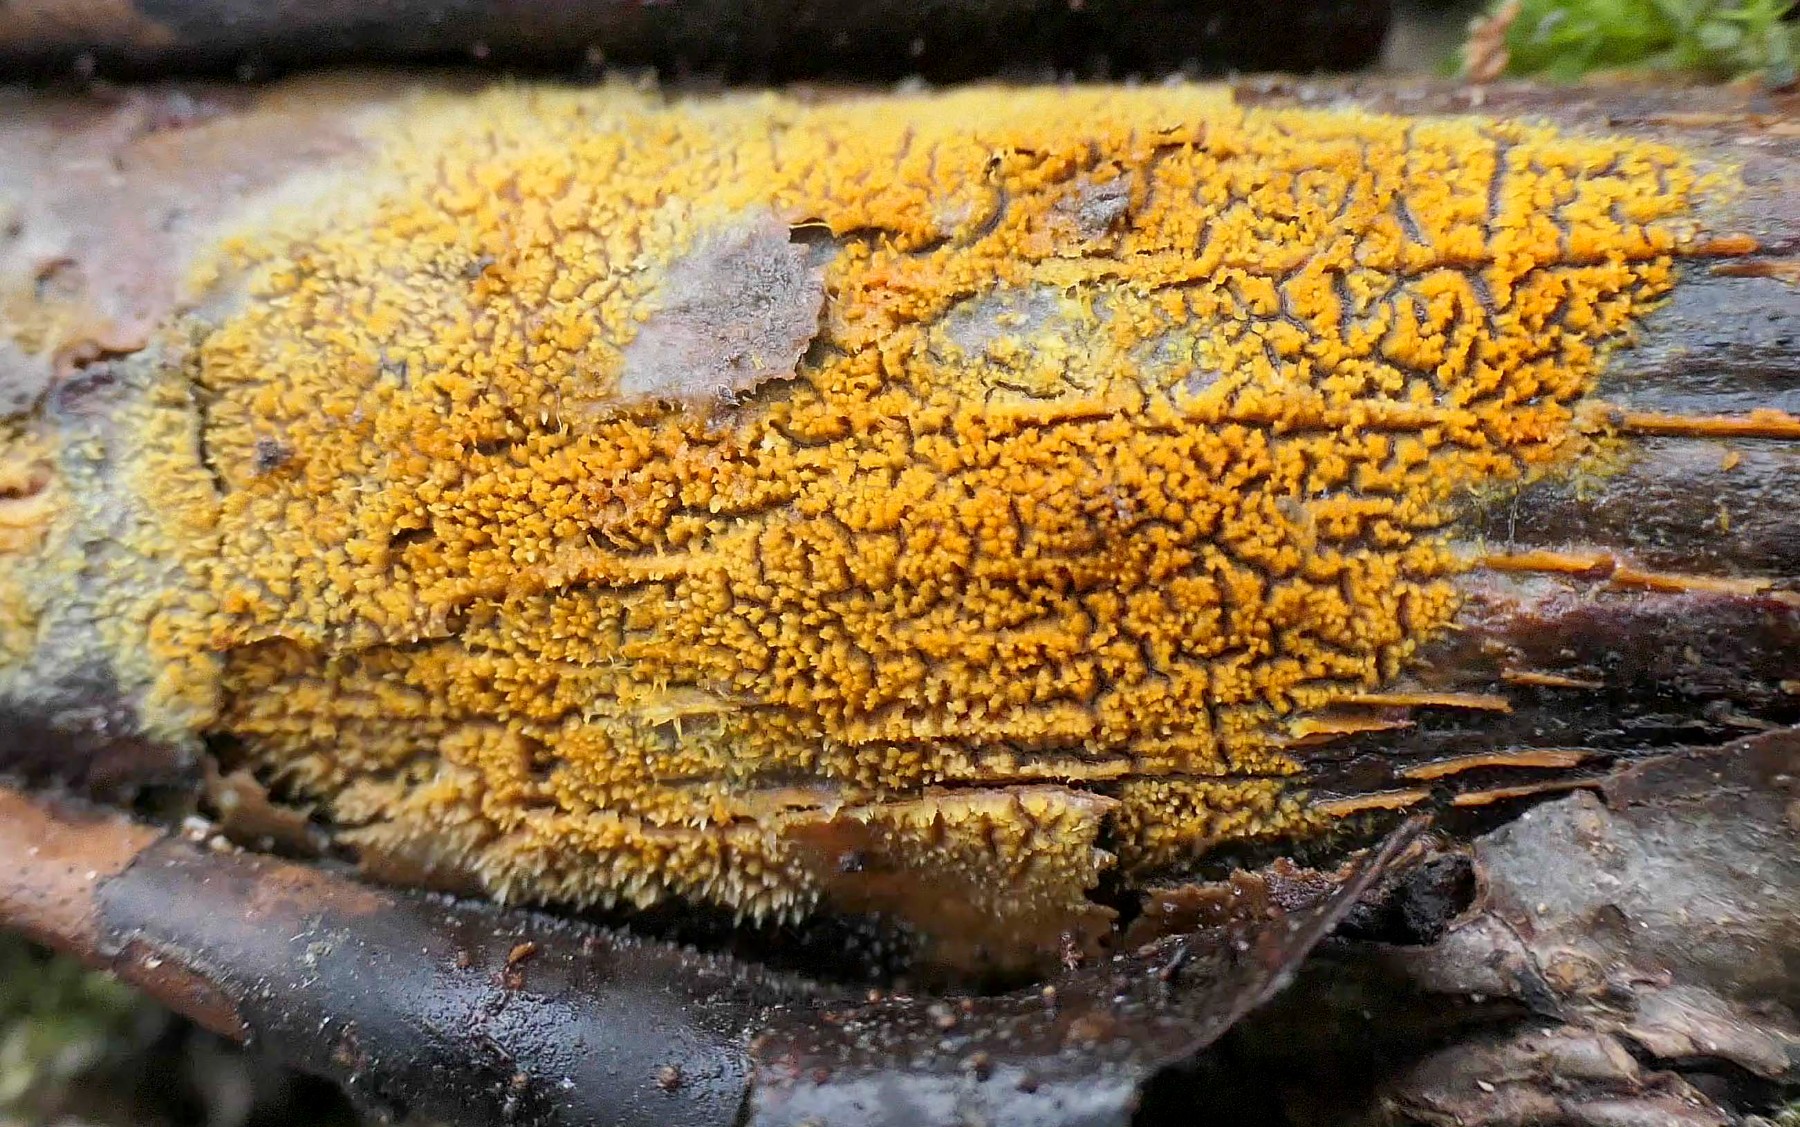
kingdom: Fungi
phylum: Basidiomycota
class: Agaricomycetes
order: Polyporales
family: Meruliaceae
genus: Mycoacia
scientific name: Mycoacia uda
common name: citrongul vokspig
